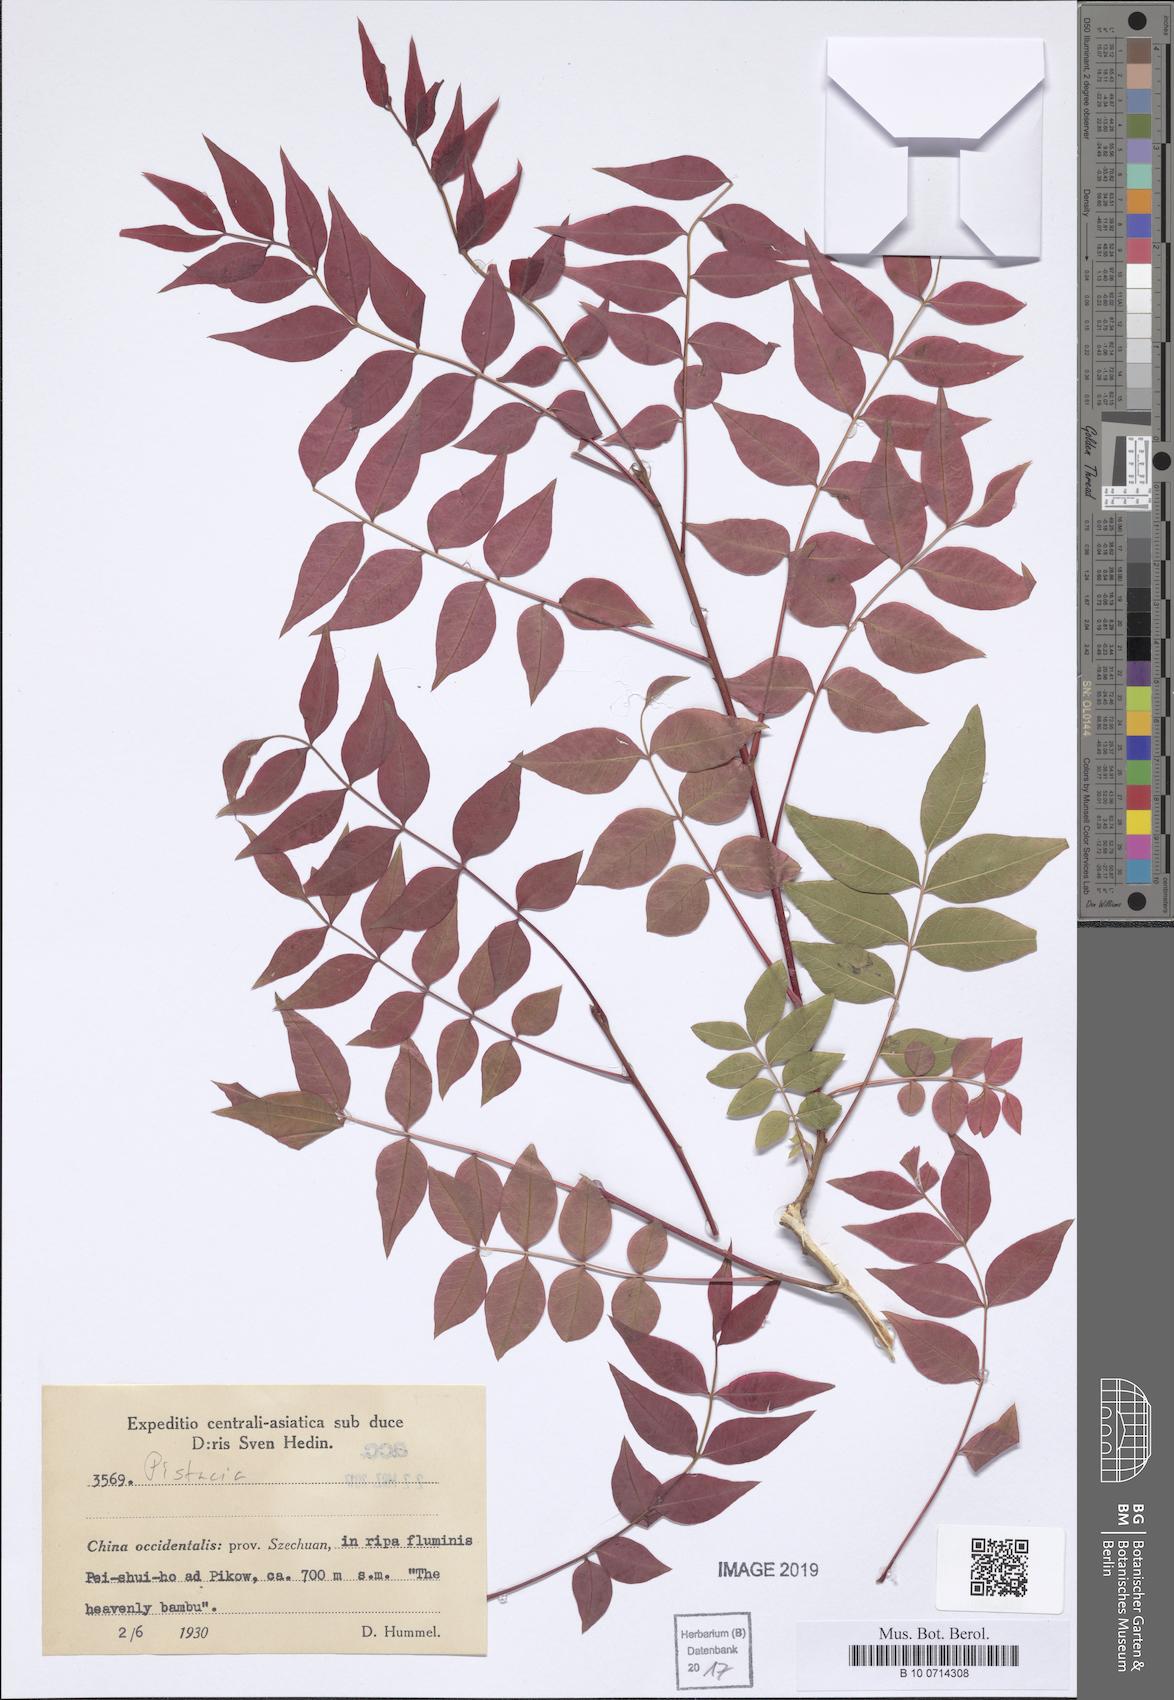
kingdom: Plantae
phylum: Tracheophyta
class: Magnoliopsida
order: Sapindales
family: Anacardiaceae
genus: Pistacia
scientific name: Pistacia
